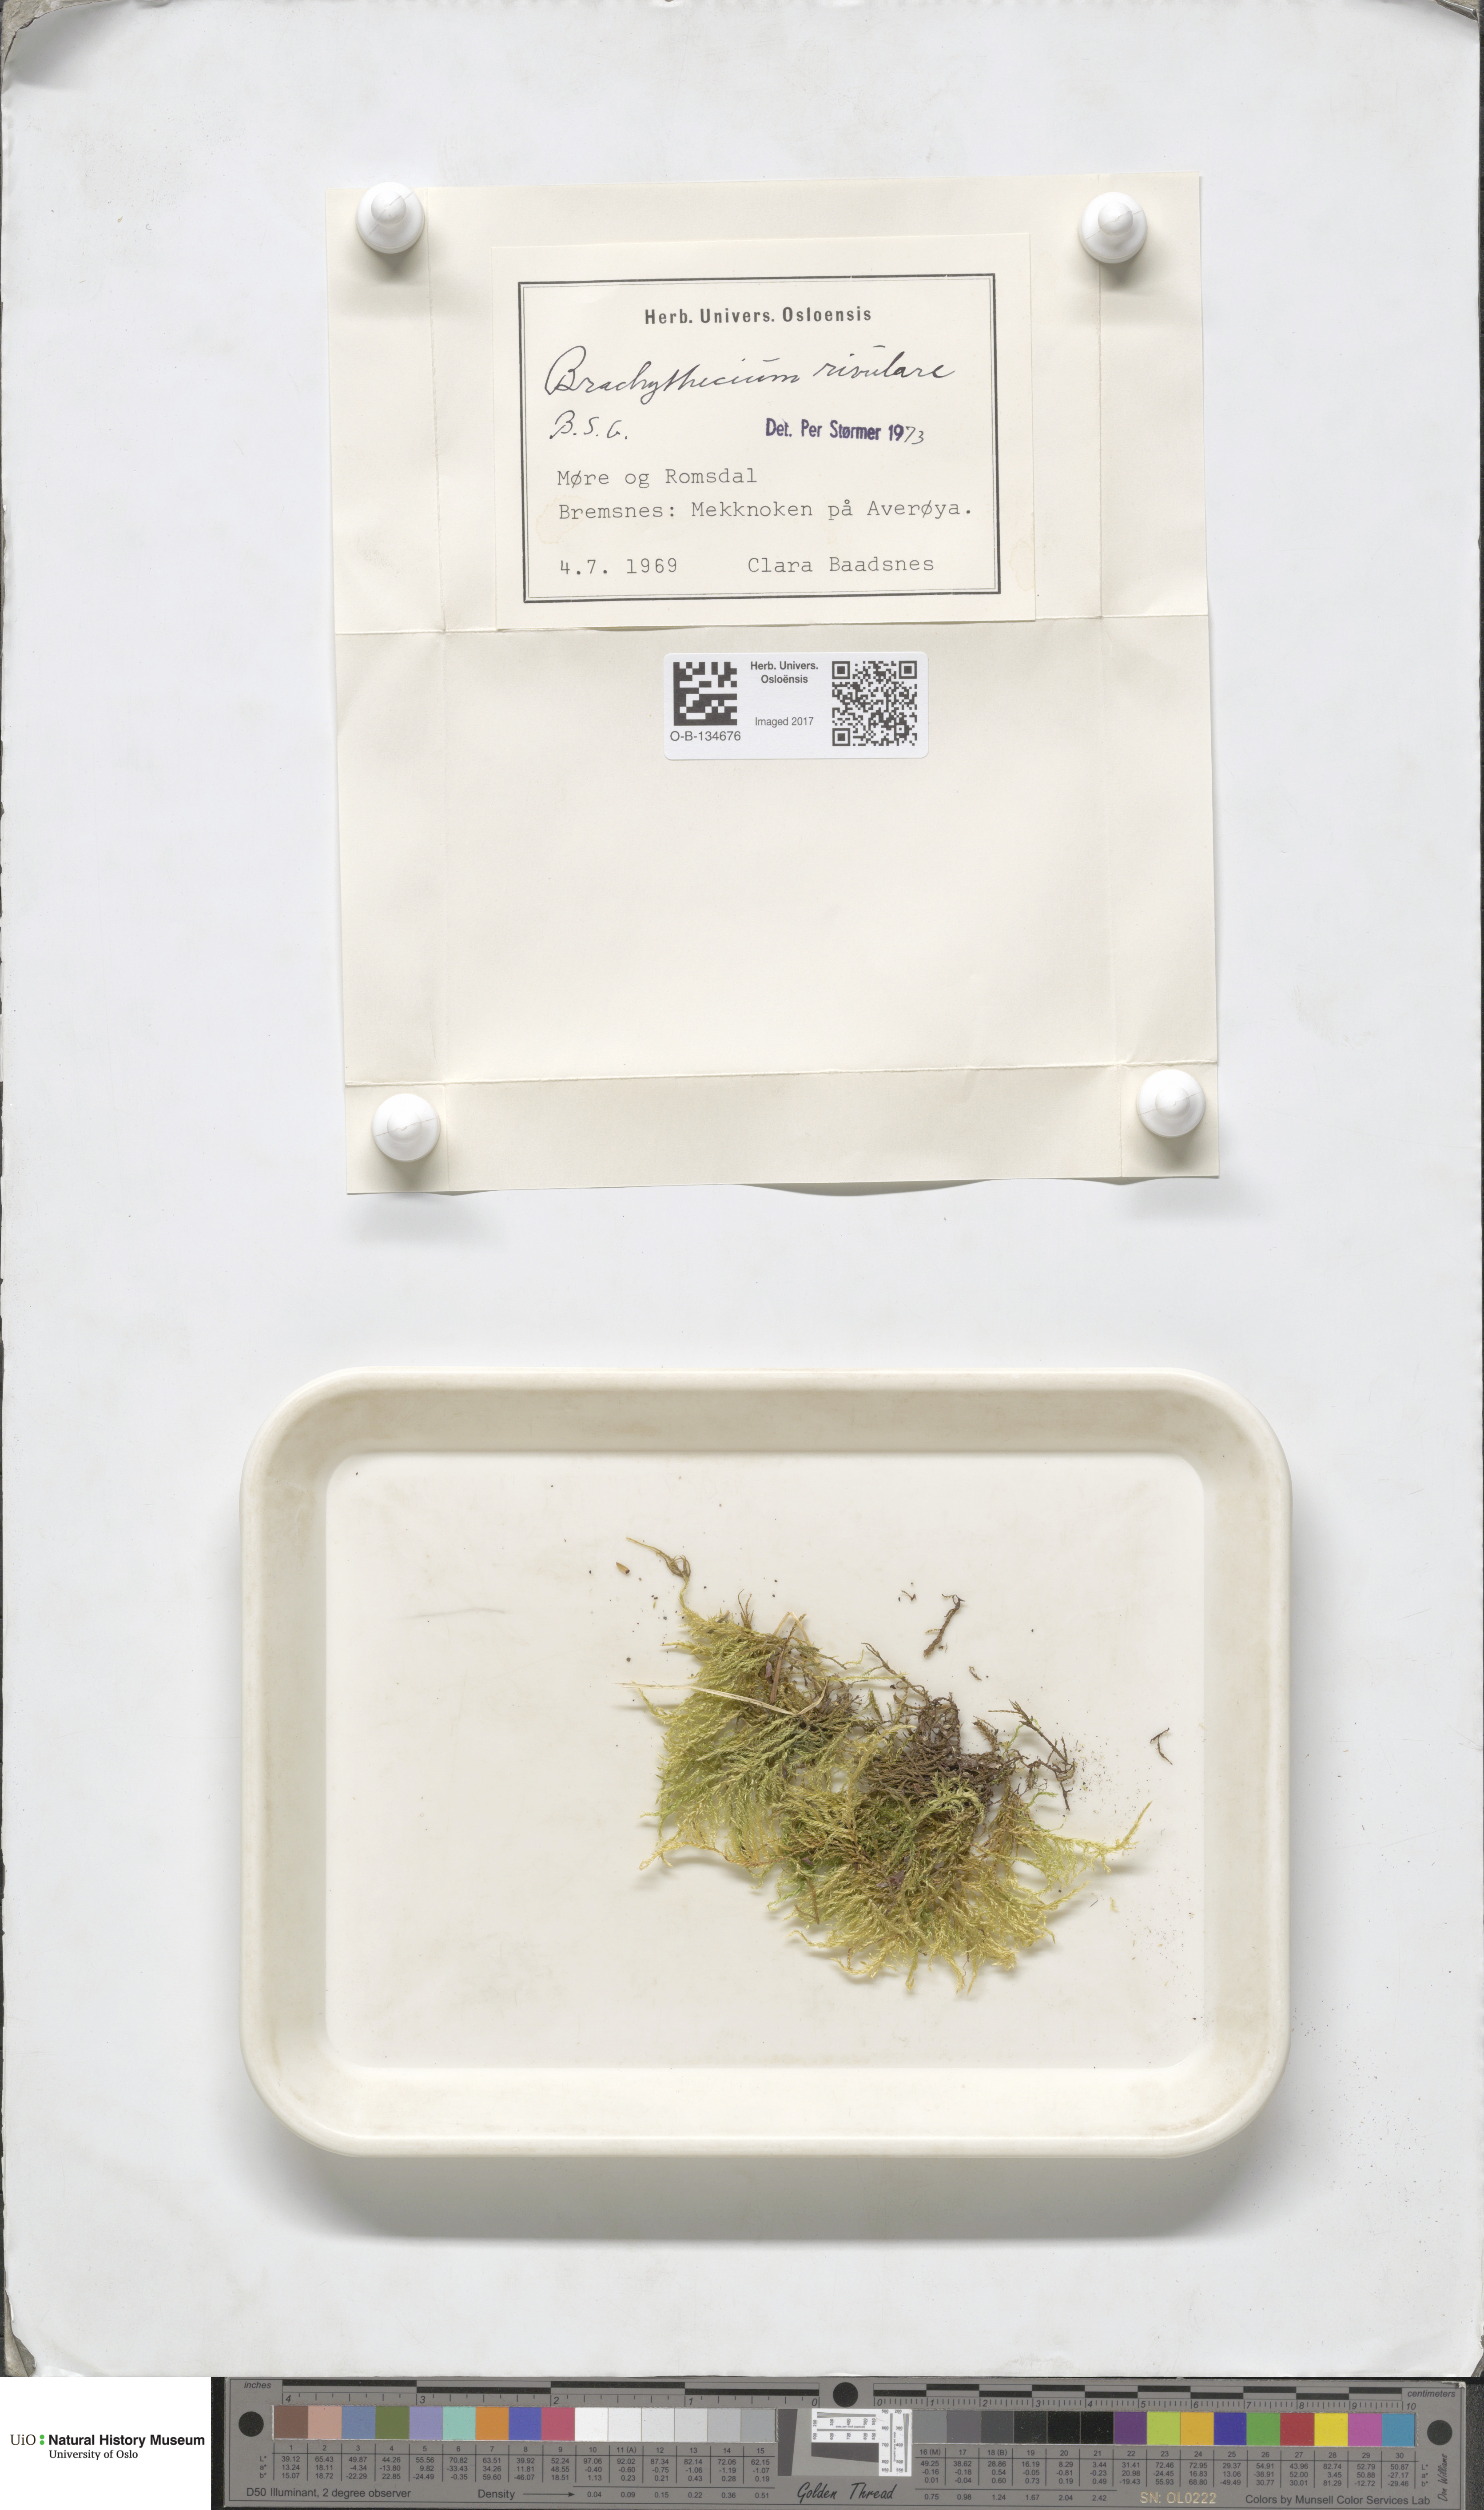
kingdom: Plantae
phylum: Bryophyta
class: Bryopsida
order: Hypnales
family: Brachytheciaceae
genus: Brachythecium
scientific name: Brachythecium rivulare
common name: River ragged moss
